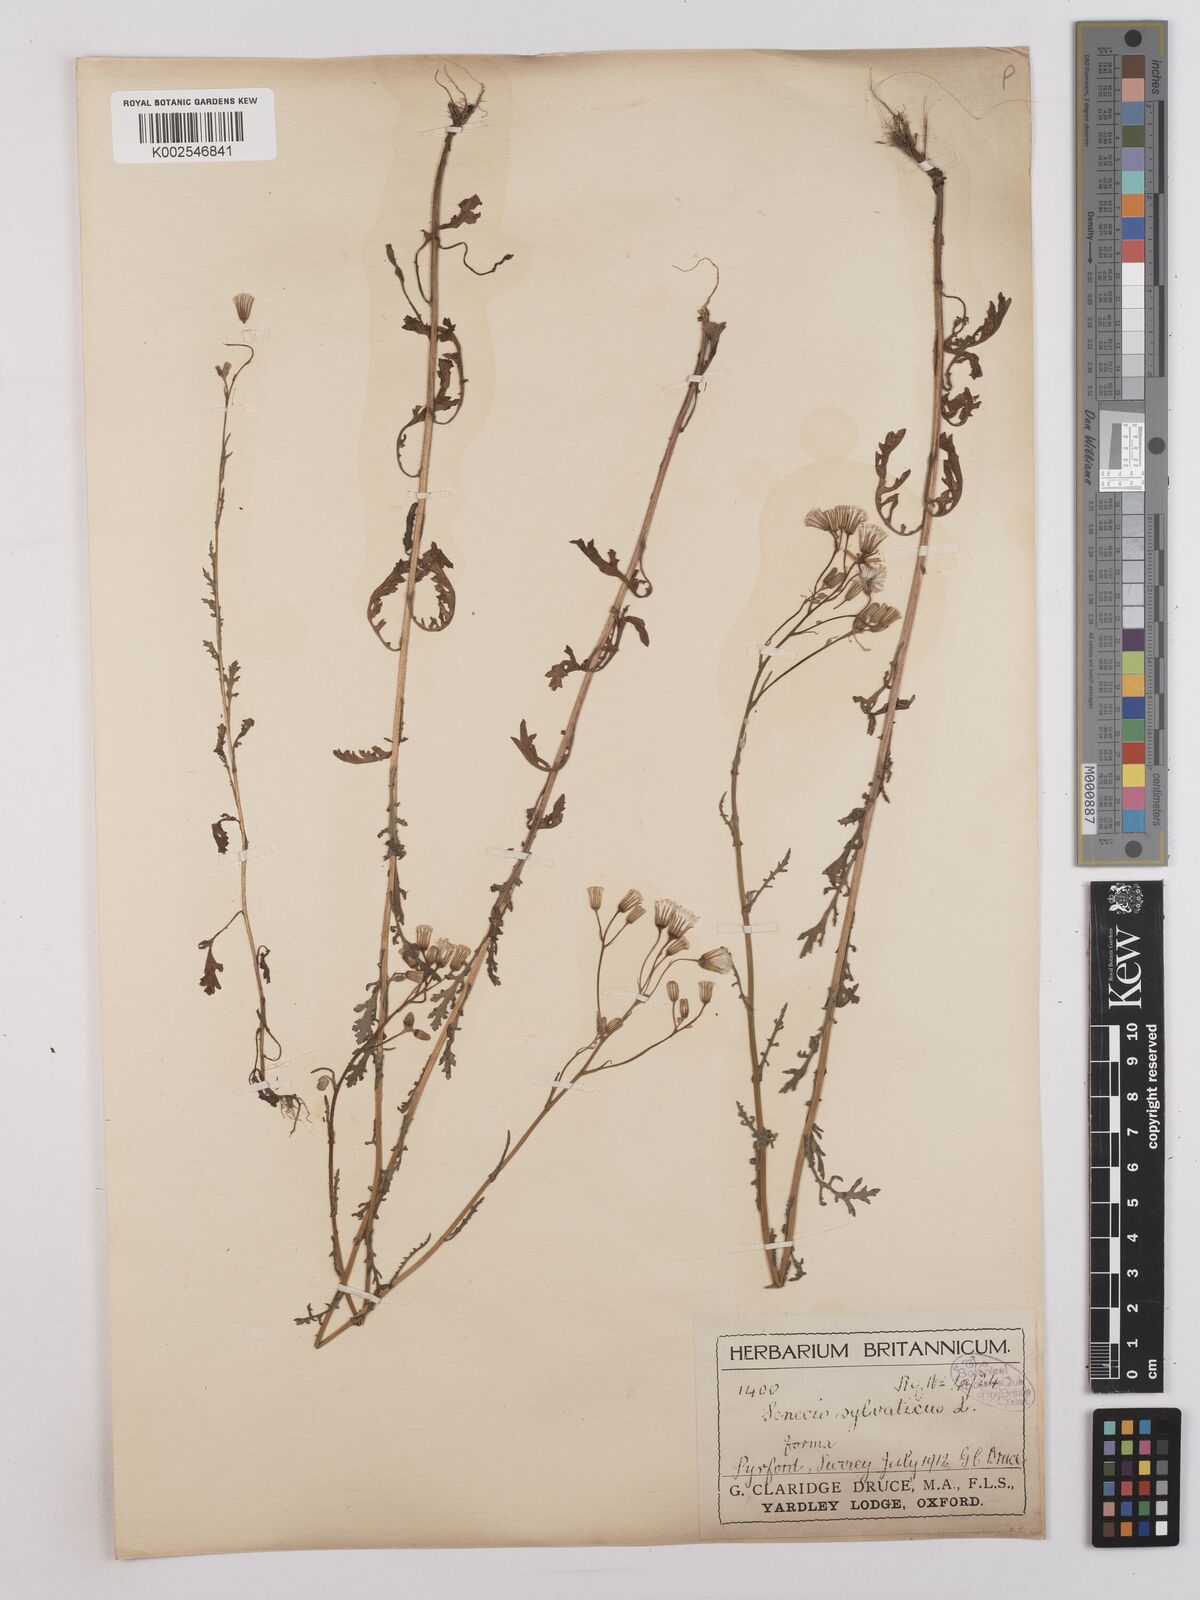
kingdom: Plantae
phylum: Tracheophyta
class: Magnoliopsida
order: Asterales
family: Asteraceae
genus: Senecio
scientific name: Senecio sylvaticus
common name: Woodland ragwort
